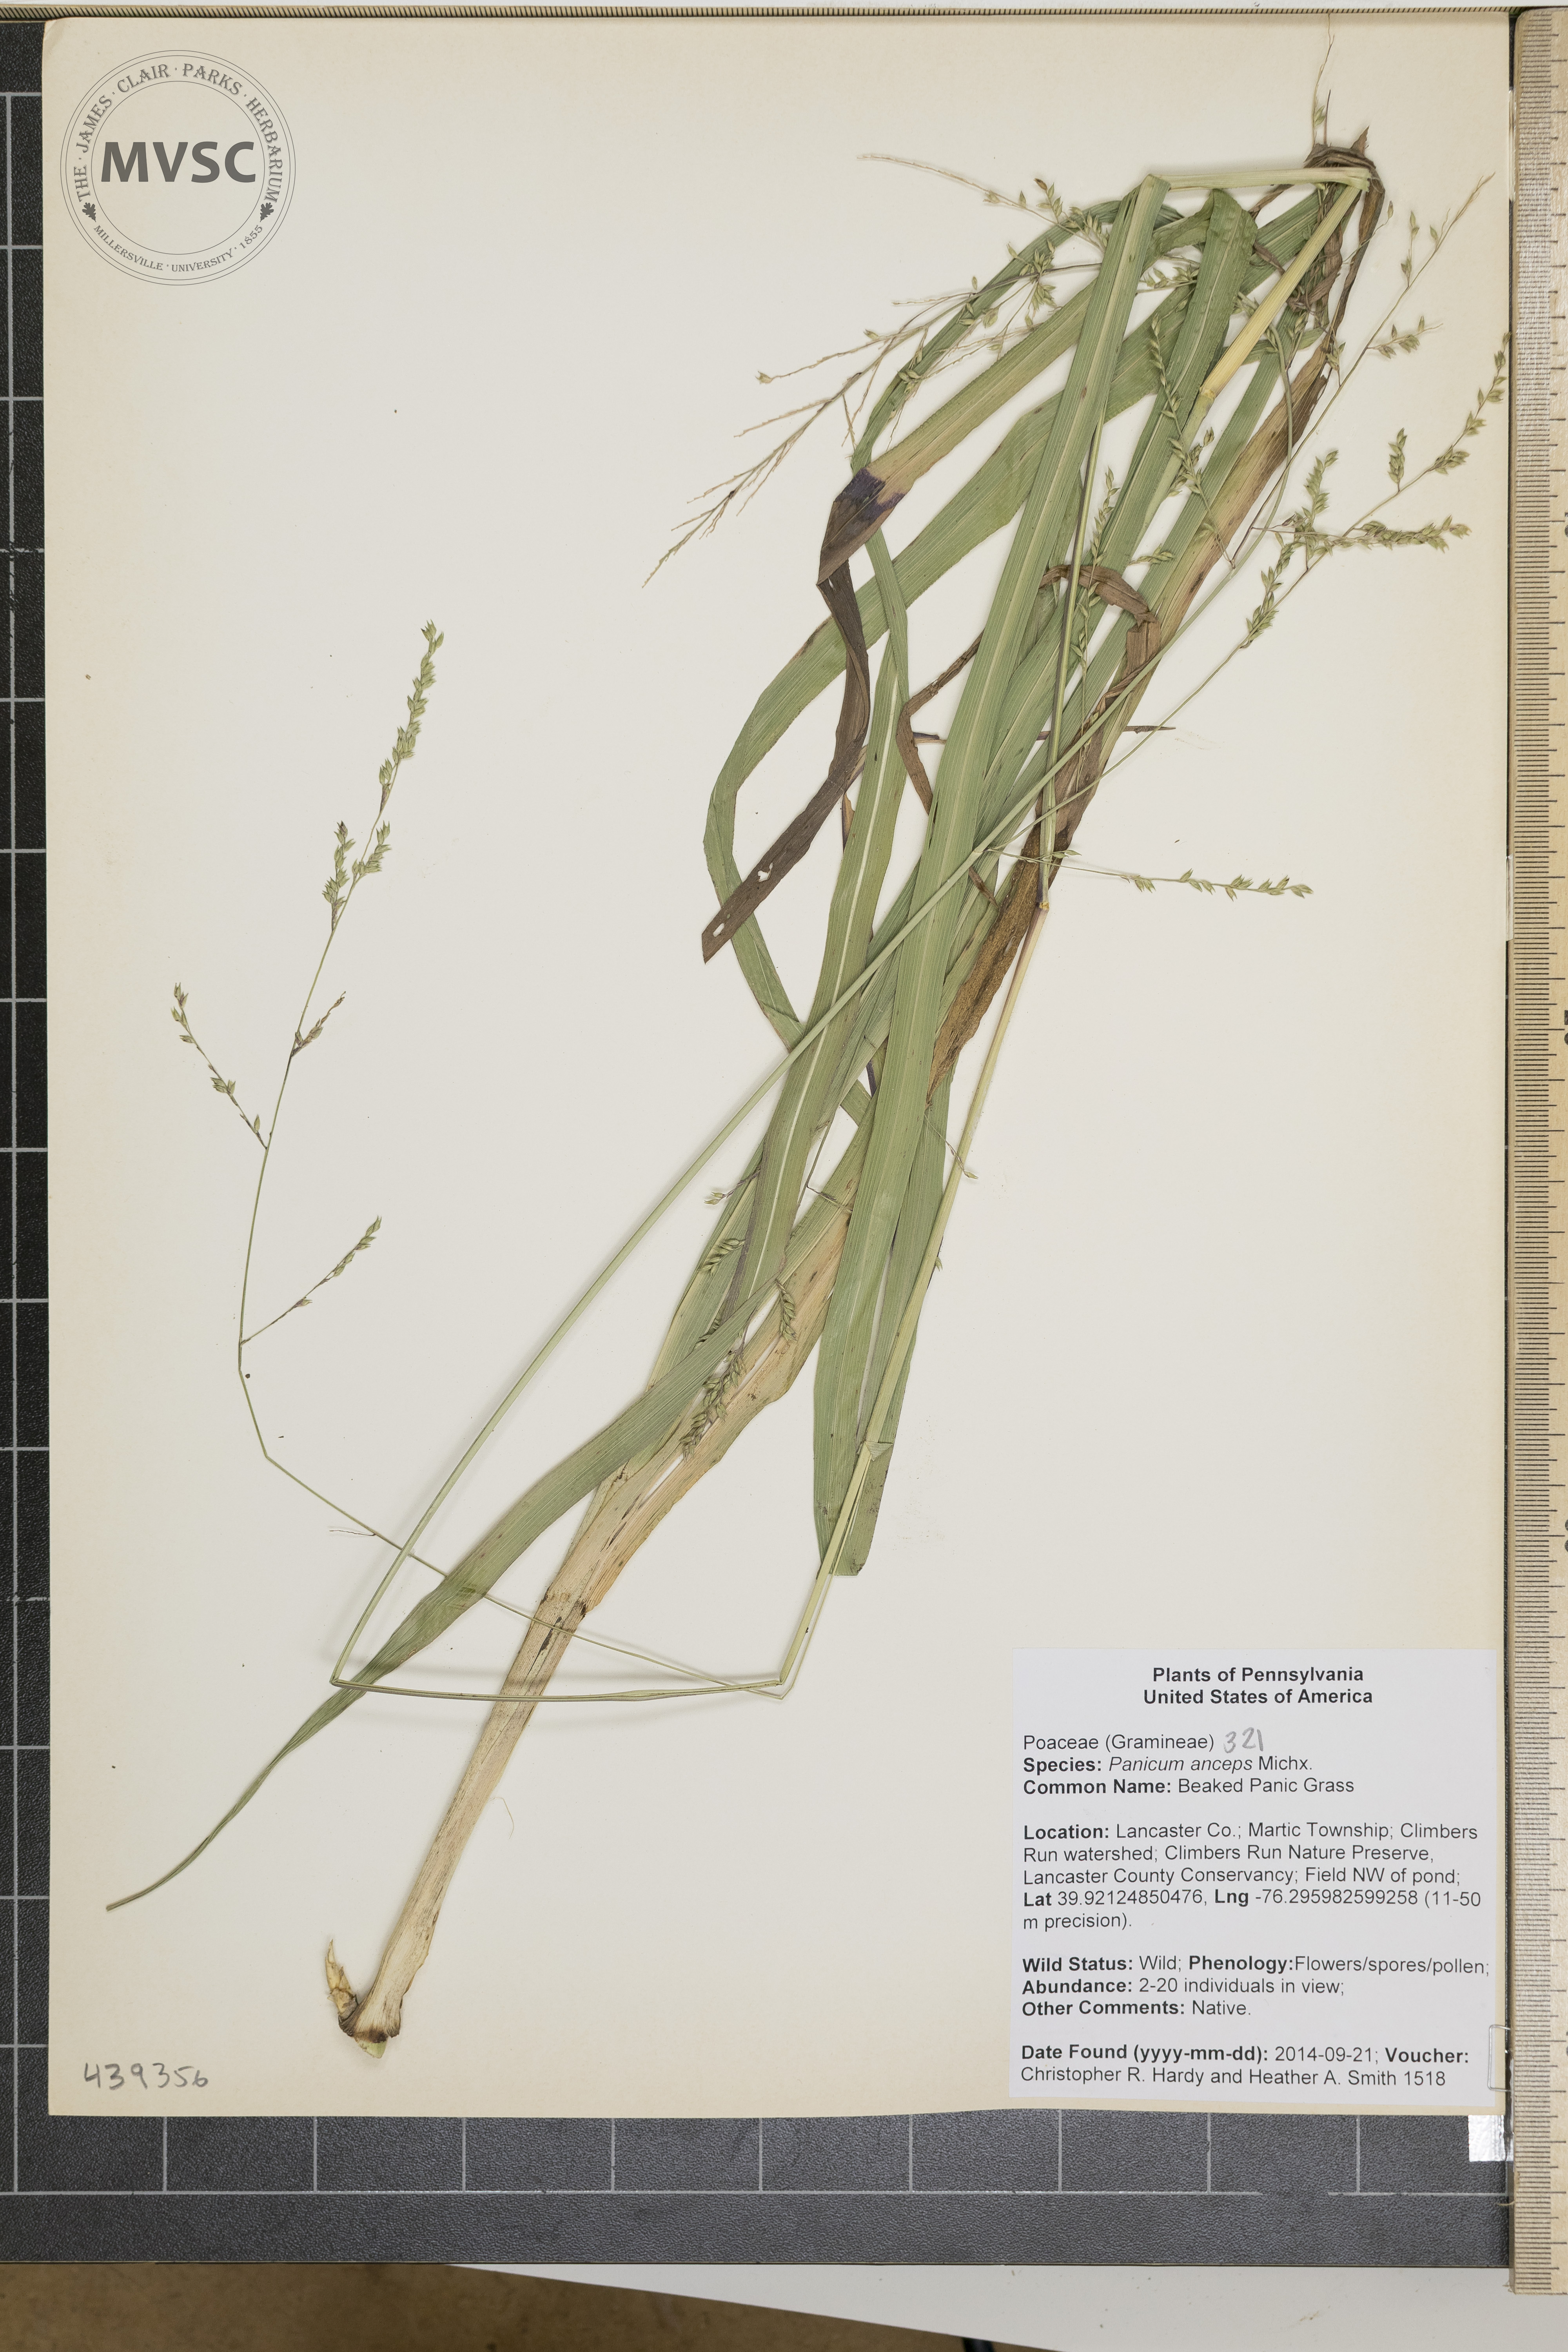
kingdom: Plantae
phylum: Tracheophyta
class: Liliopsida
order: Poales
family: Poaceae
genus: Coleataenia
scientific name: Coleataenia anceps
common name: beaked panic grass
